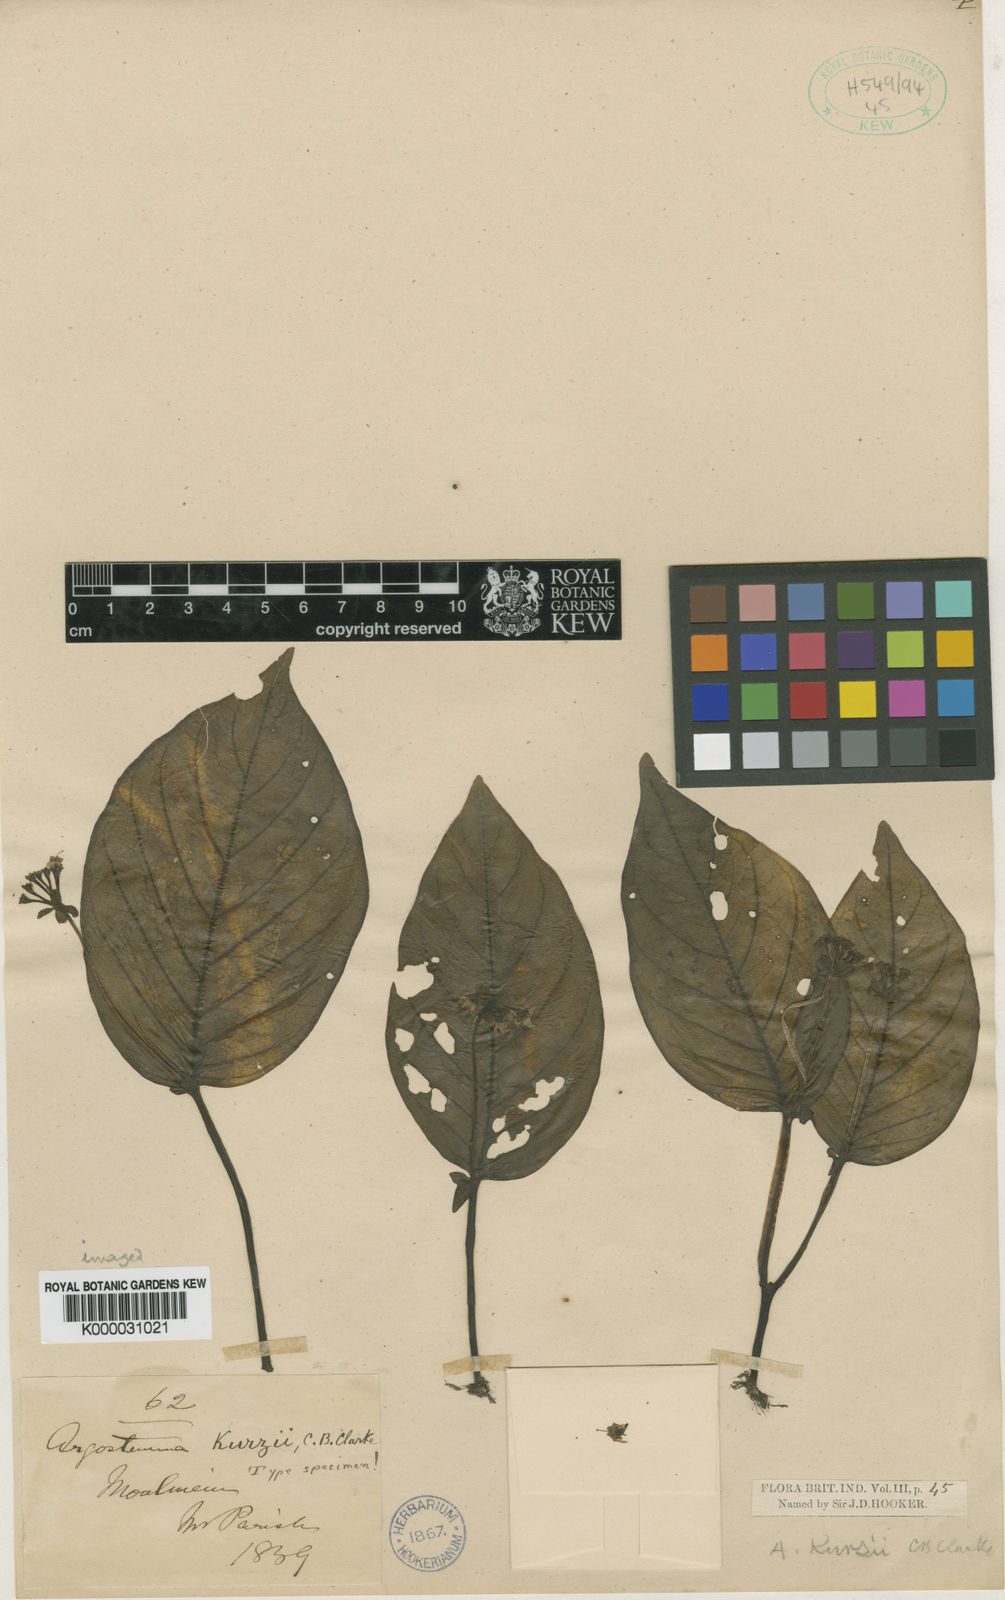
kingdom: Plantae
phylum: Tracheophyta
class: Magnoliopsida
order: Gentianales
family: Rubiaceae
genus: Argostemma
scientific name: Argostemma kurzii
